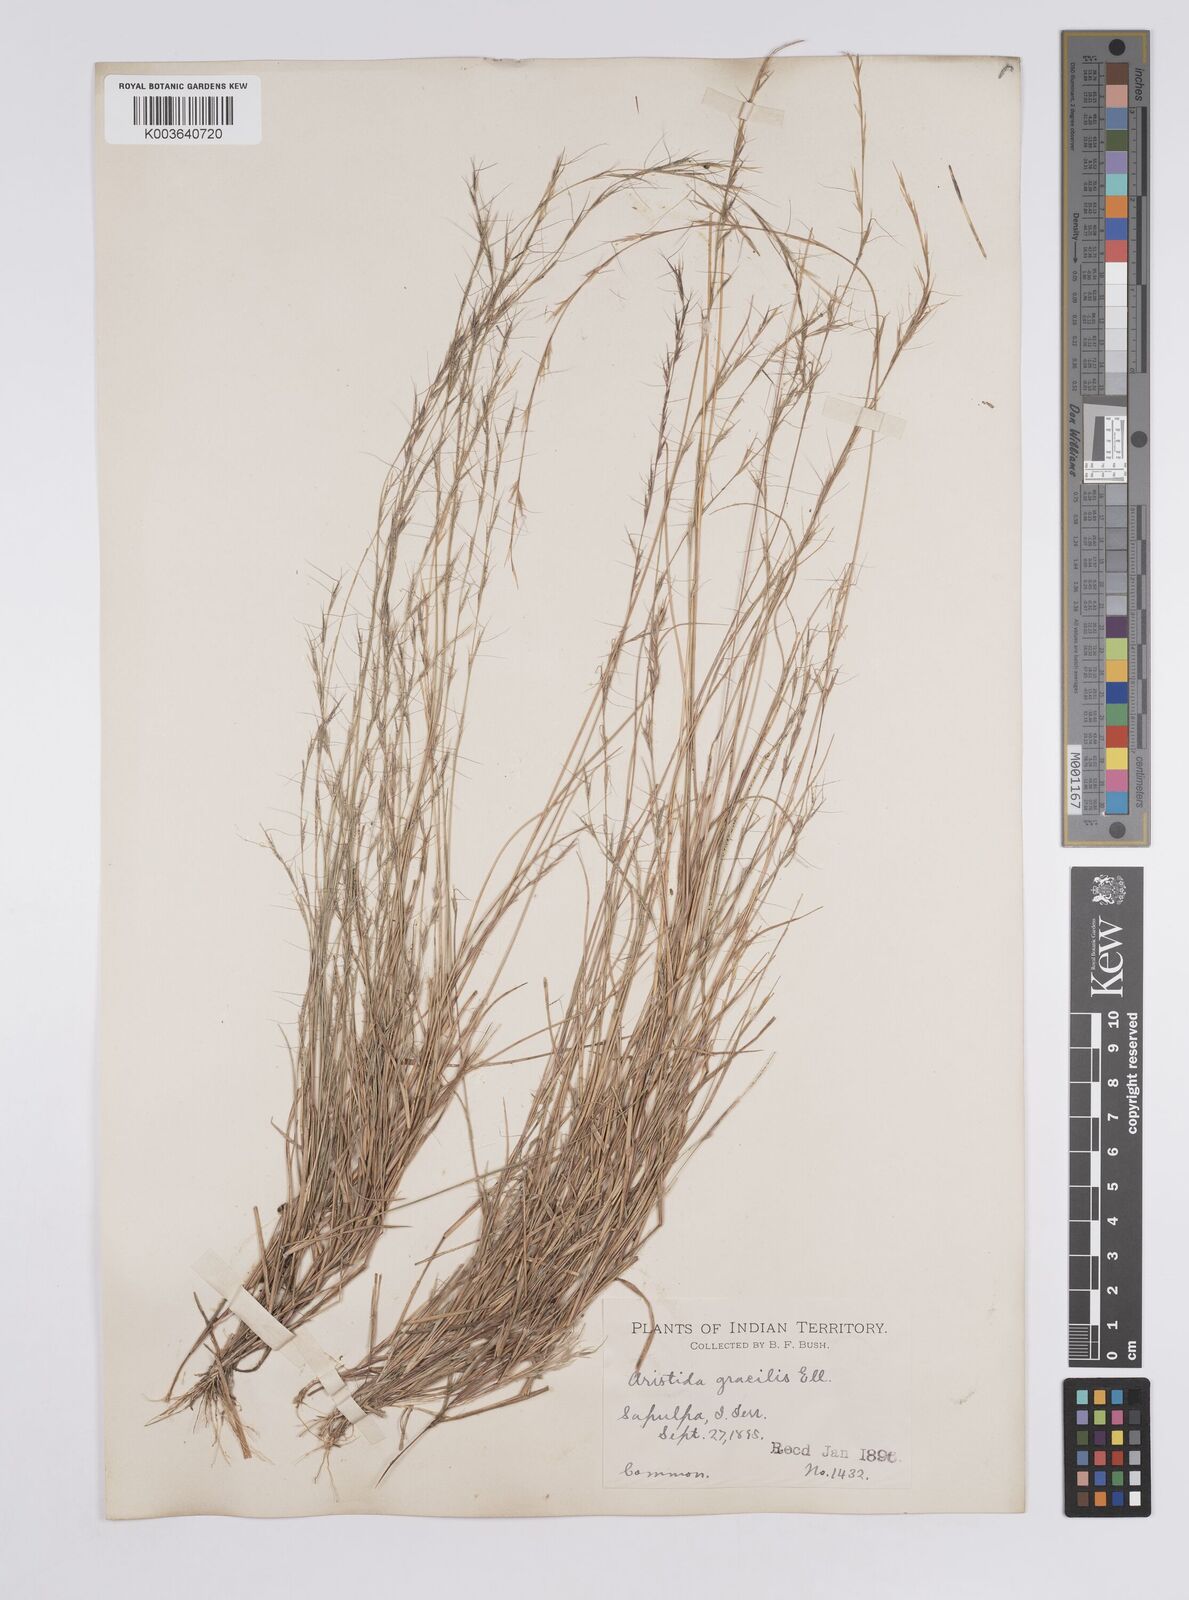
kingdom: Plantae
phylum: Tracheophyta
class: Liliopsida
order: Poales
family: Poaceae
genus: Aristida
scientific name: Aristida longespica
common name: Long-spiked triple-awned grass
